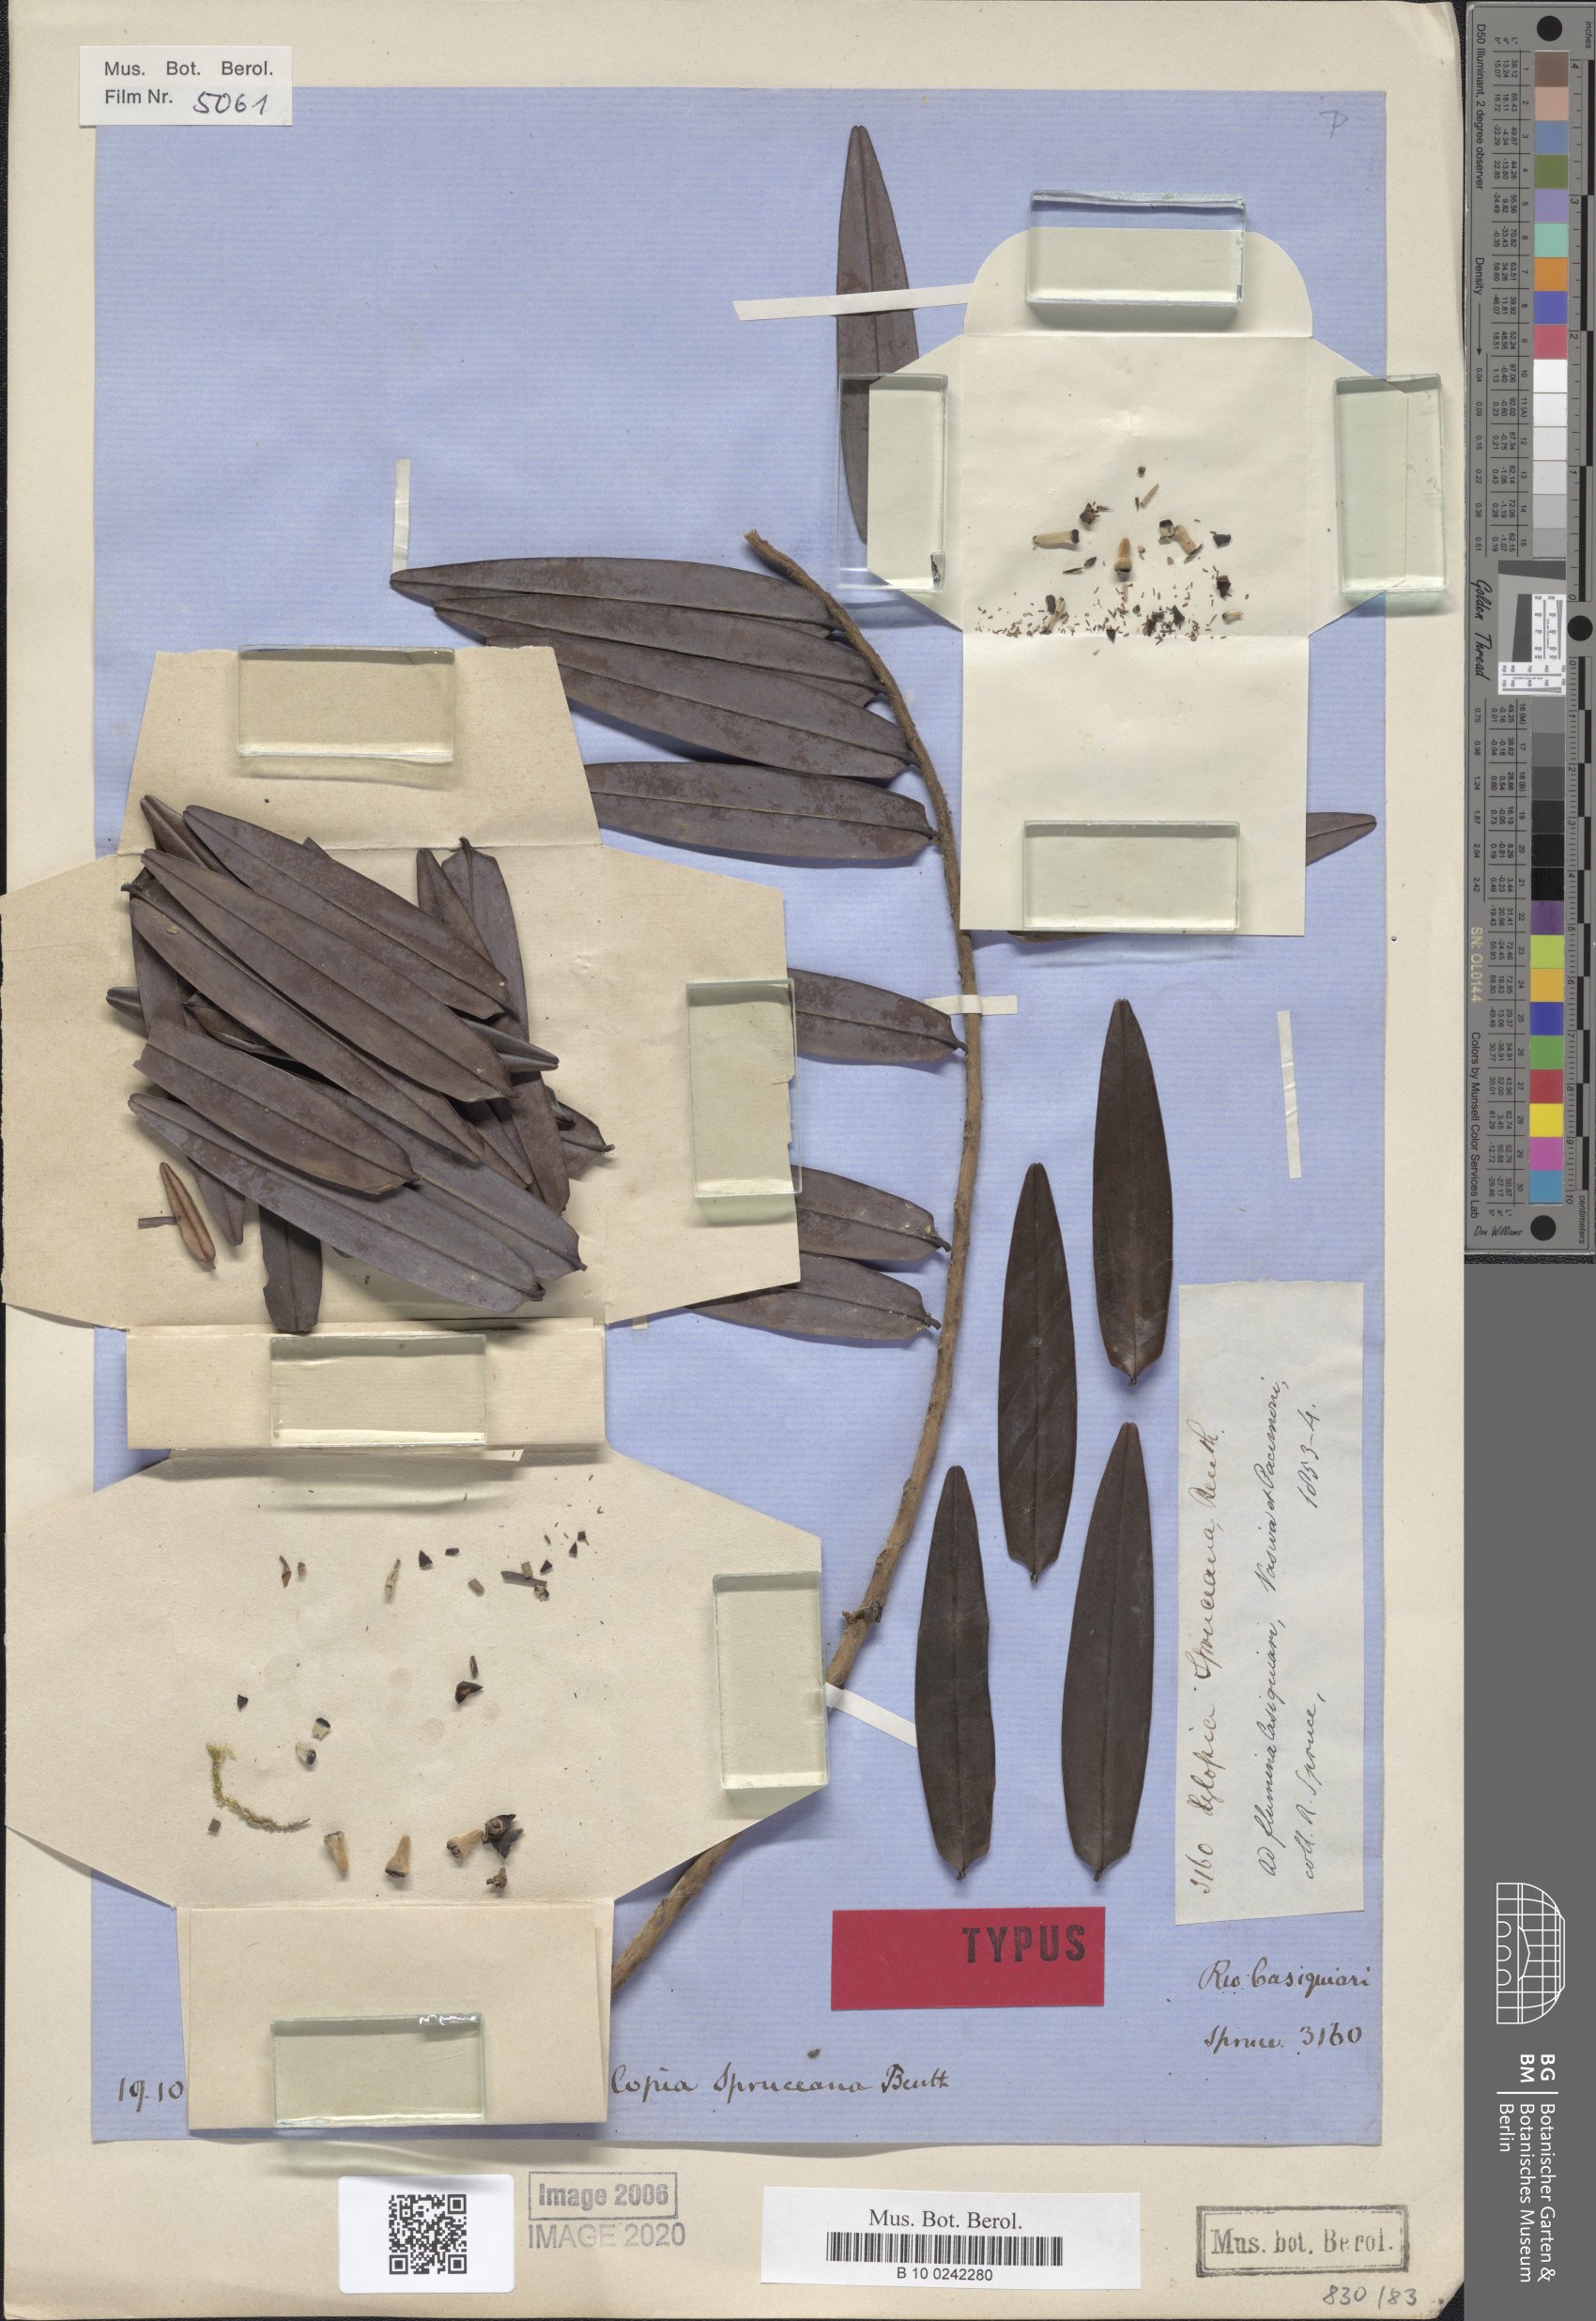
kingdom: Plantae
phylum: Tracheophyta
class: Magnoliopsida
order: Magnoliales
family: Annonaceae
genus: Xylopia
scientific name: Xylopia spruceana
